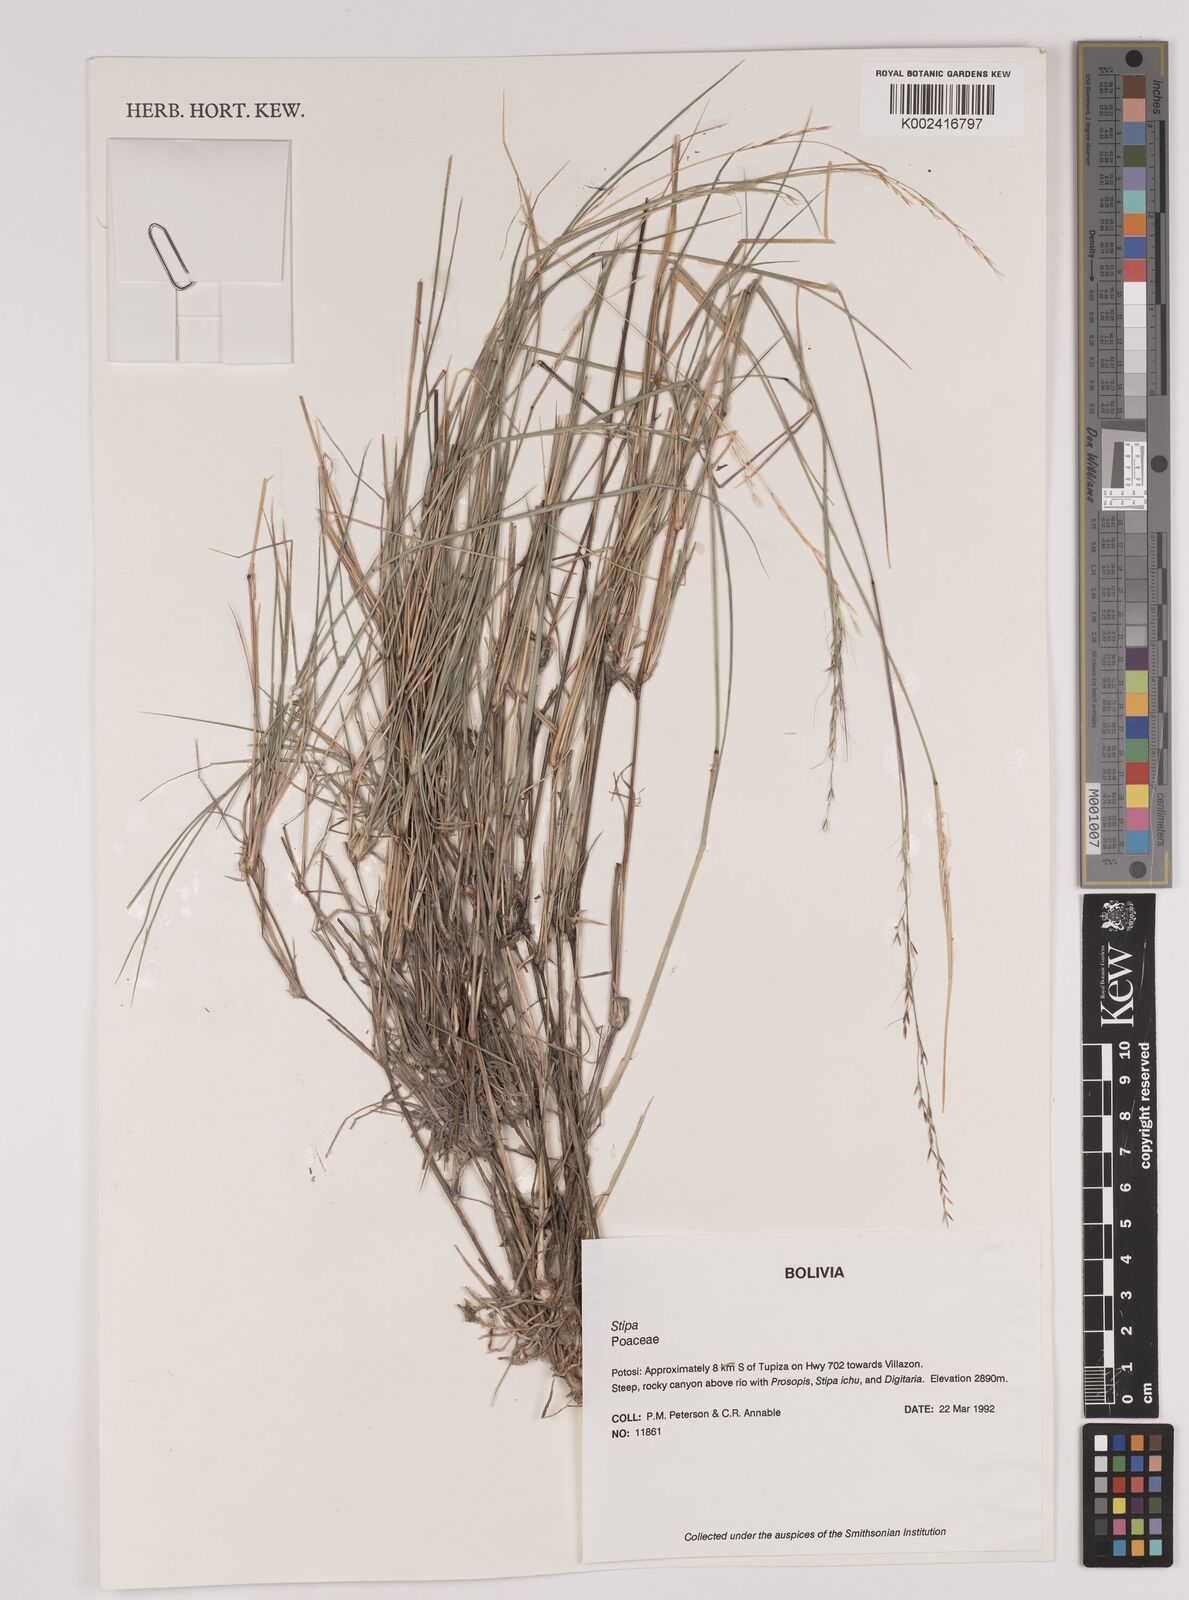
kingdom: Plantae
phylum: Tracheophyta
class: Liliopsida
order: Poales
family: Poaceae
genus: Stipa
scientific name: Stipa illimanica
